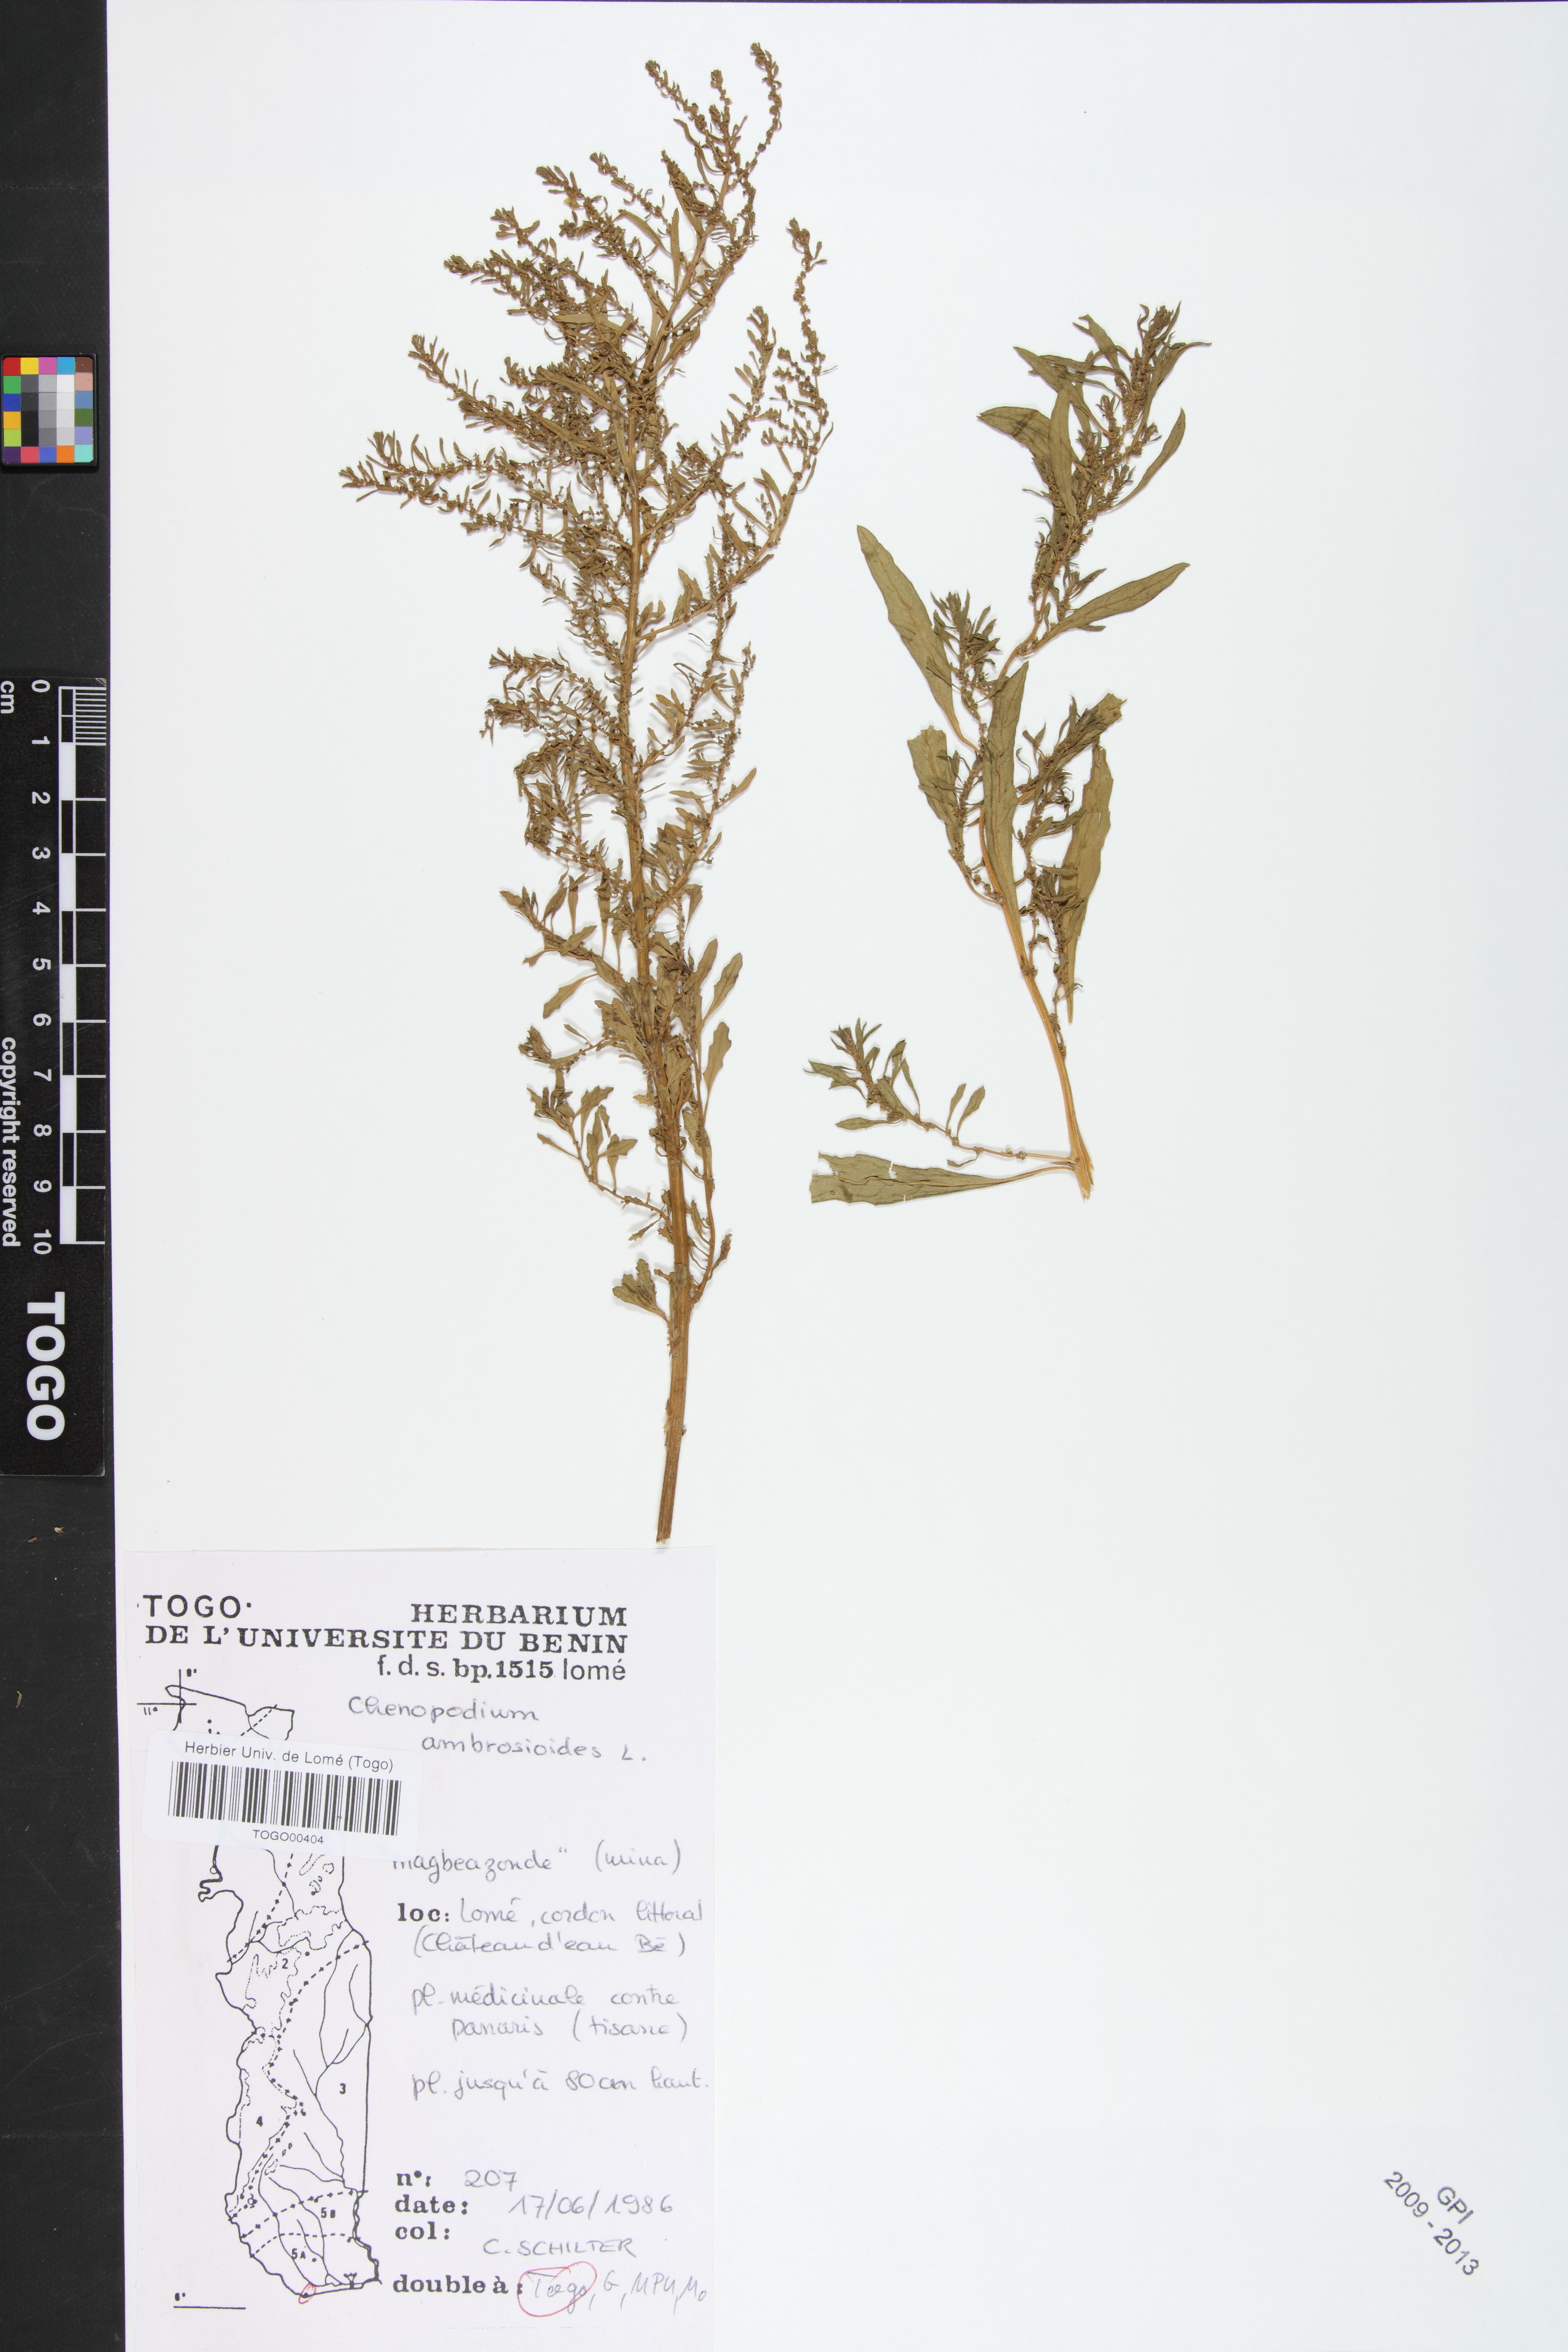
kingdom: Plantae
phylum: Tracheophyta
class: Magnoliopsida
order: Caryophyllales
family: Amaranthaceae
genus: Dysphania
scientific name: Dysphania ambrosioides
